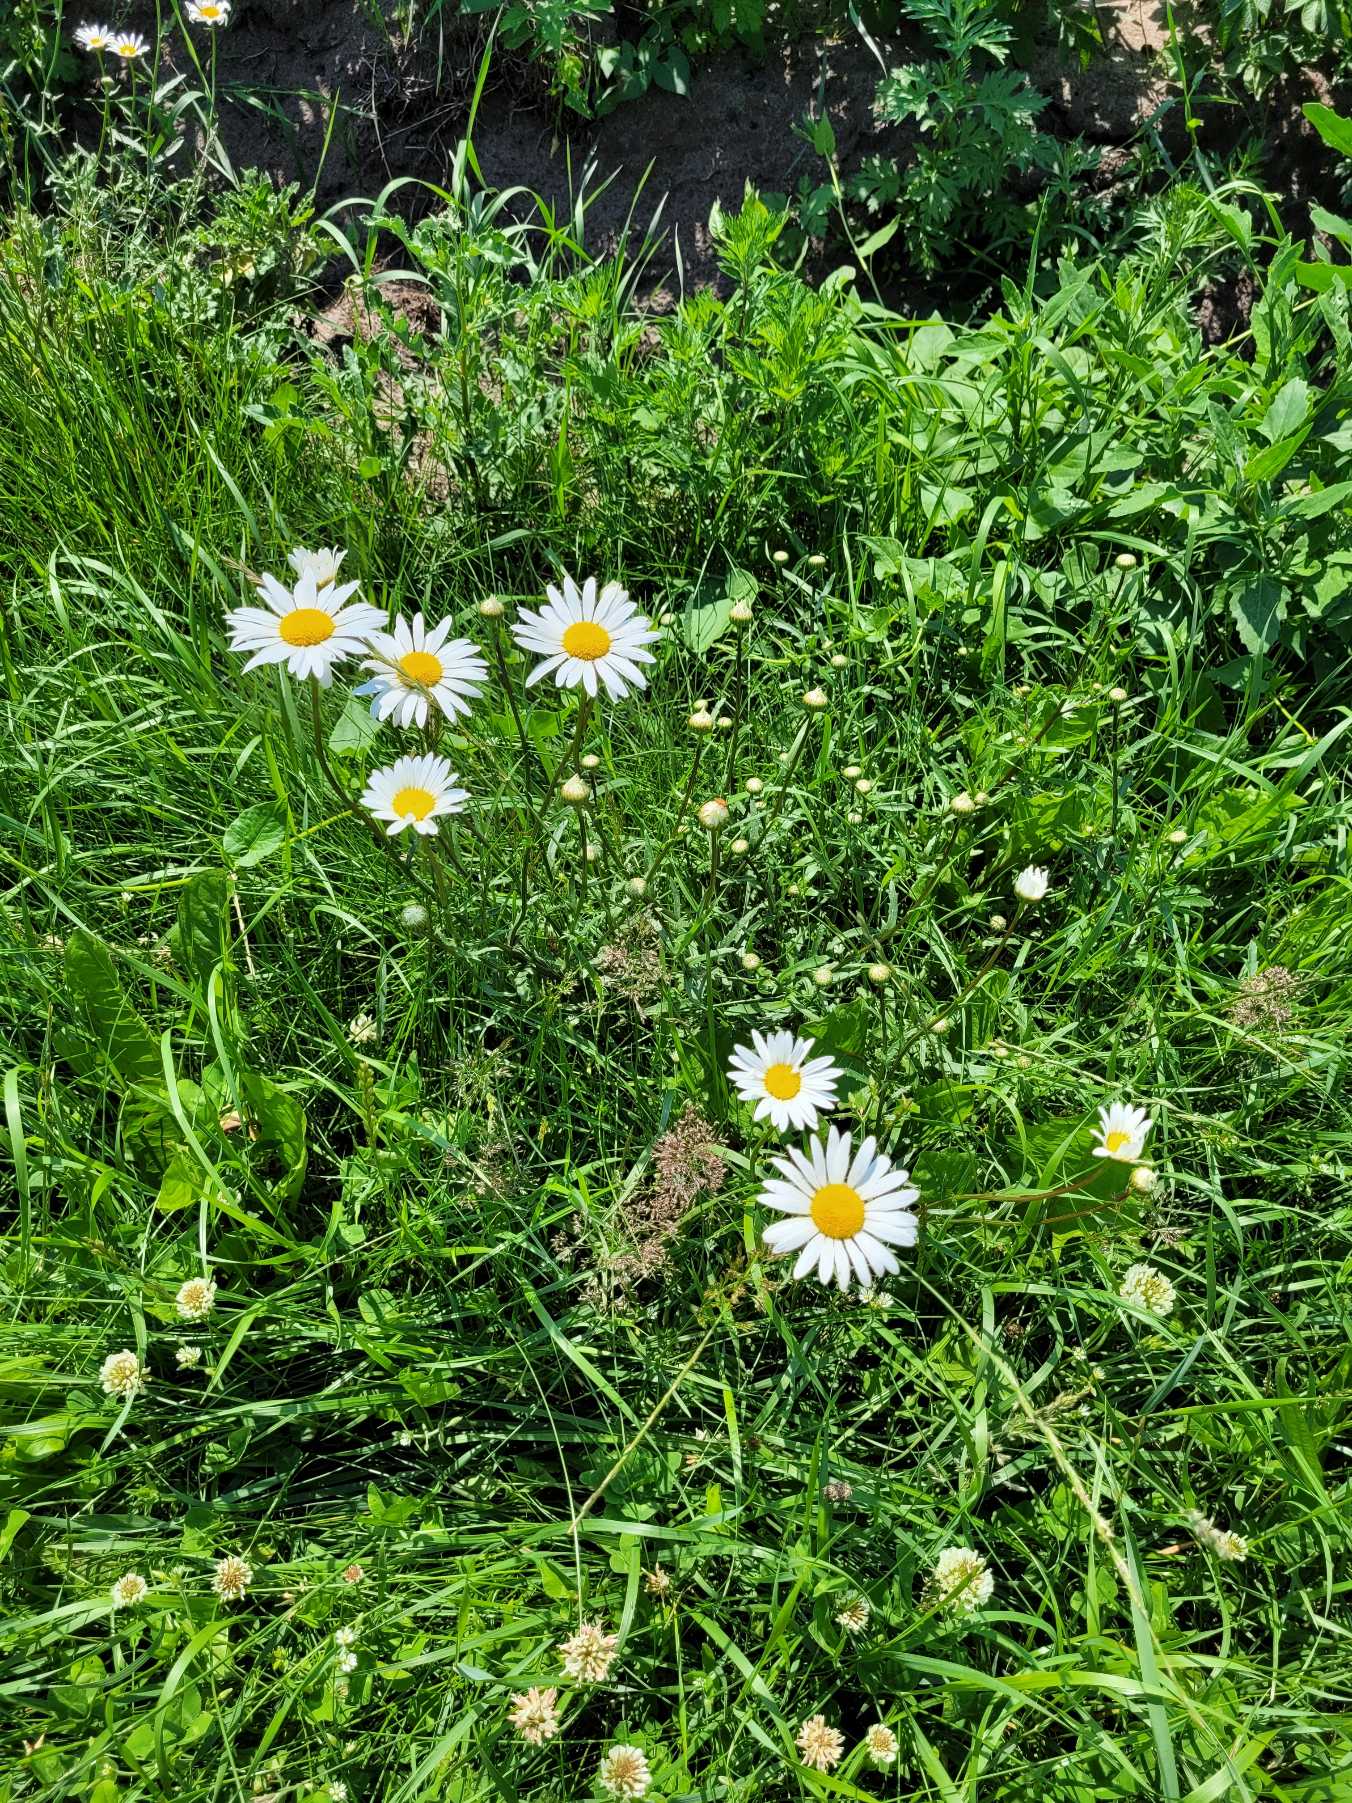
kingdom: Plantae
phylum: Tracheophyta
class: Magnoliopsida
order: Asterales
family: Asteraceae
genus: Leucanthemum
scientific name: Leucanthemum vulgare
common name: Hvid okseøje
